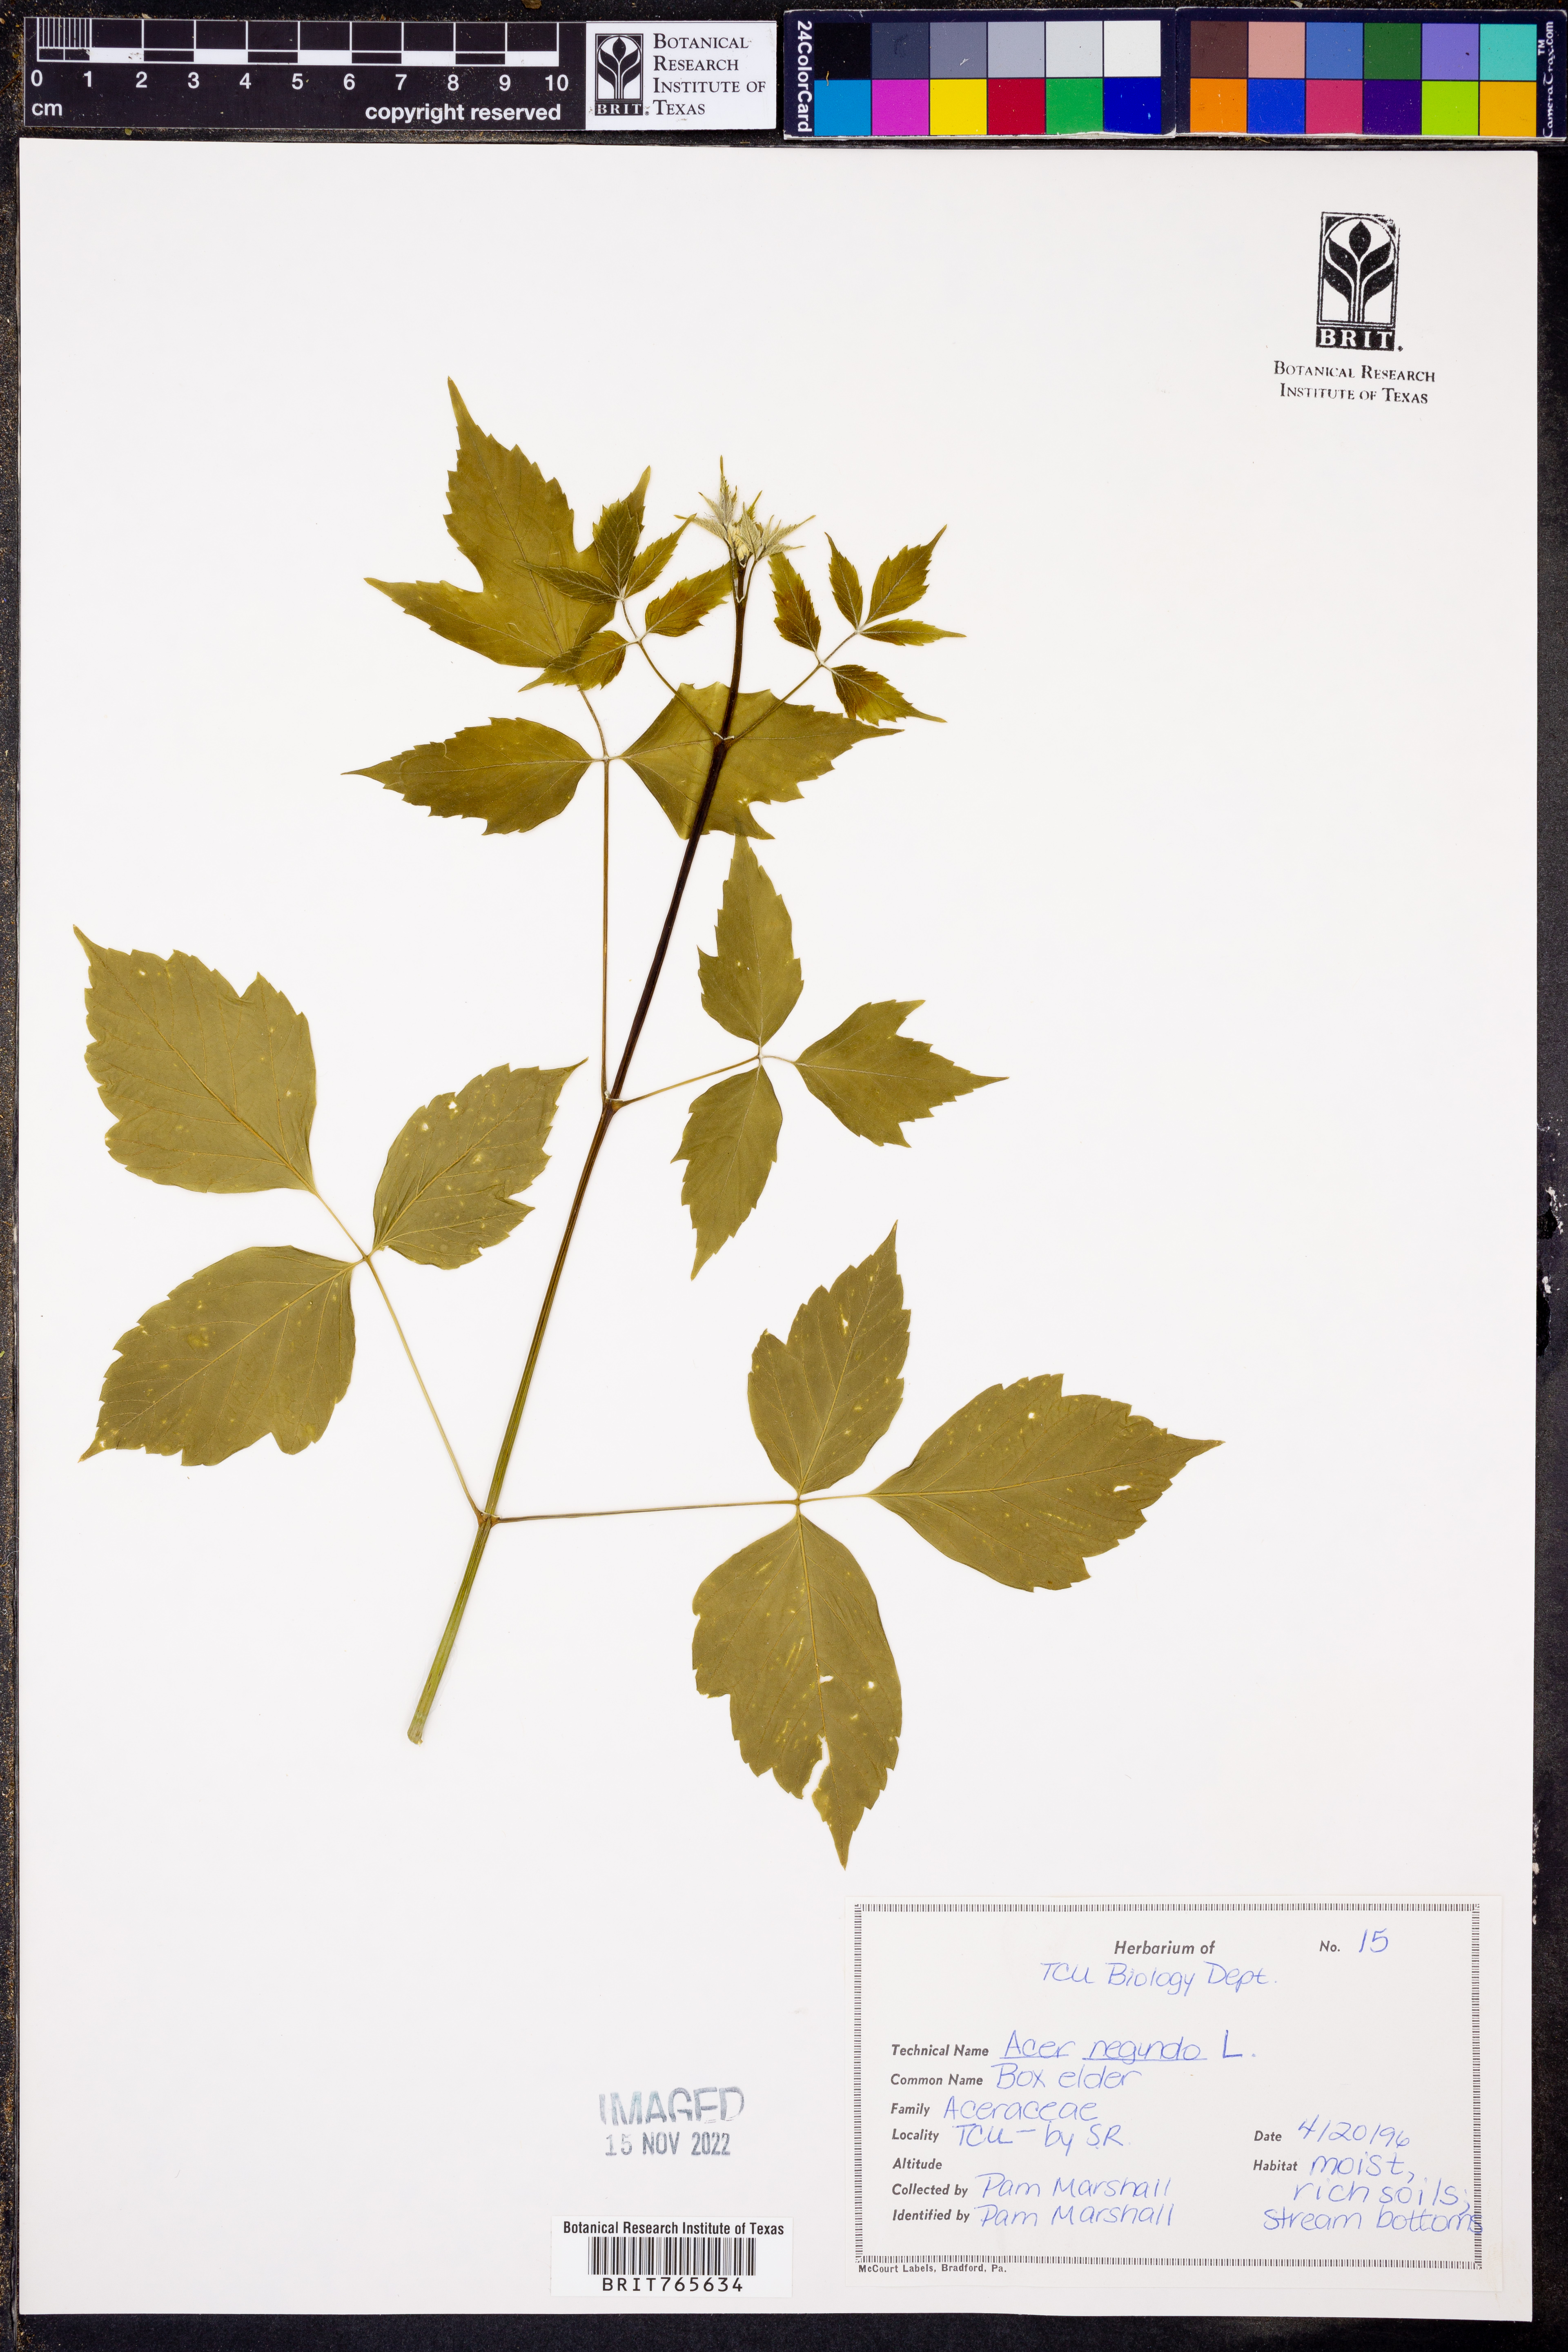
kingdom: Plantae
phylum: Tracheophyta
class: Magnoliopsida
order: Sapindales
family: Sapindaceae
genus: Acer
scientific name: Acer negundo
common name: Ashleaf maple
